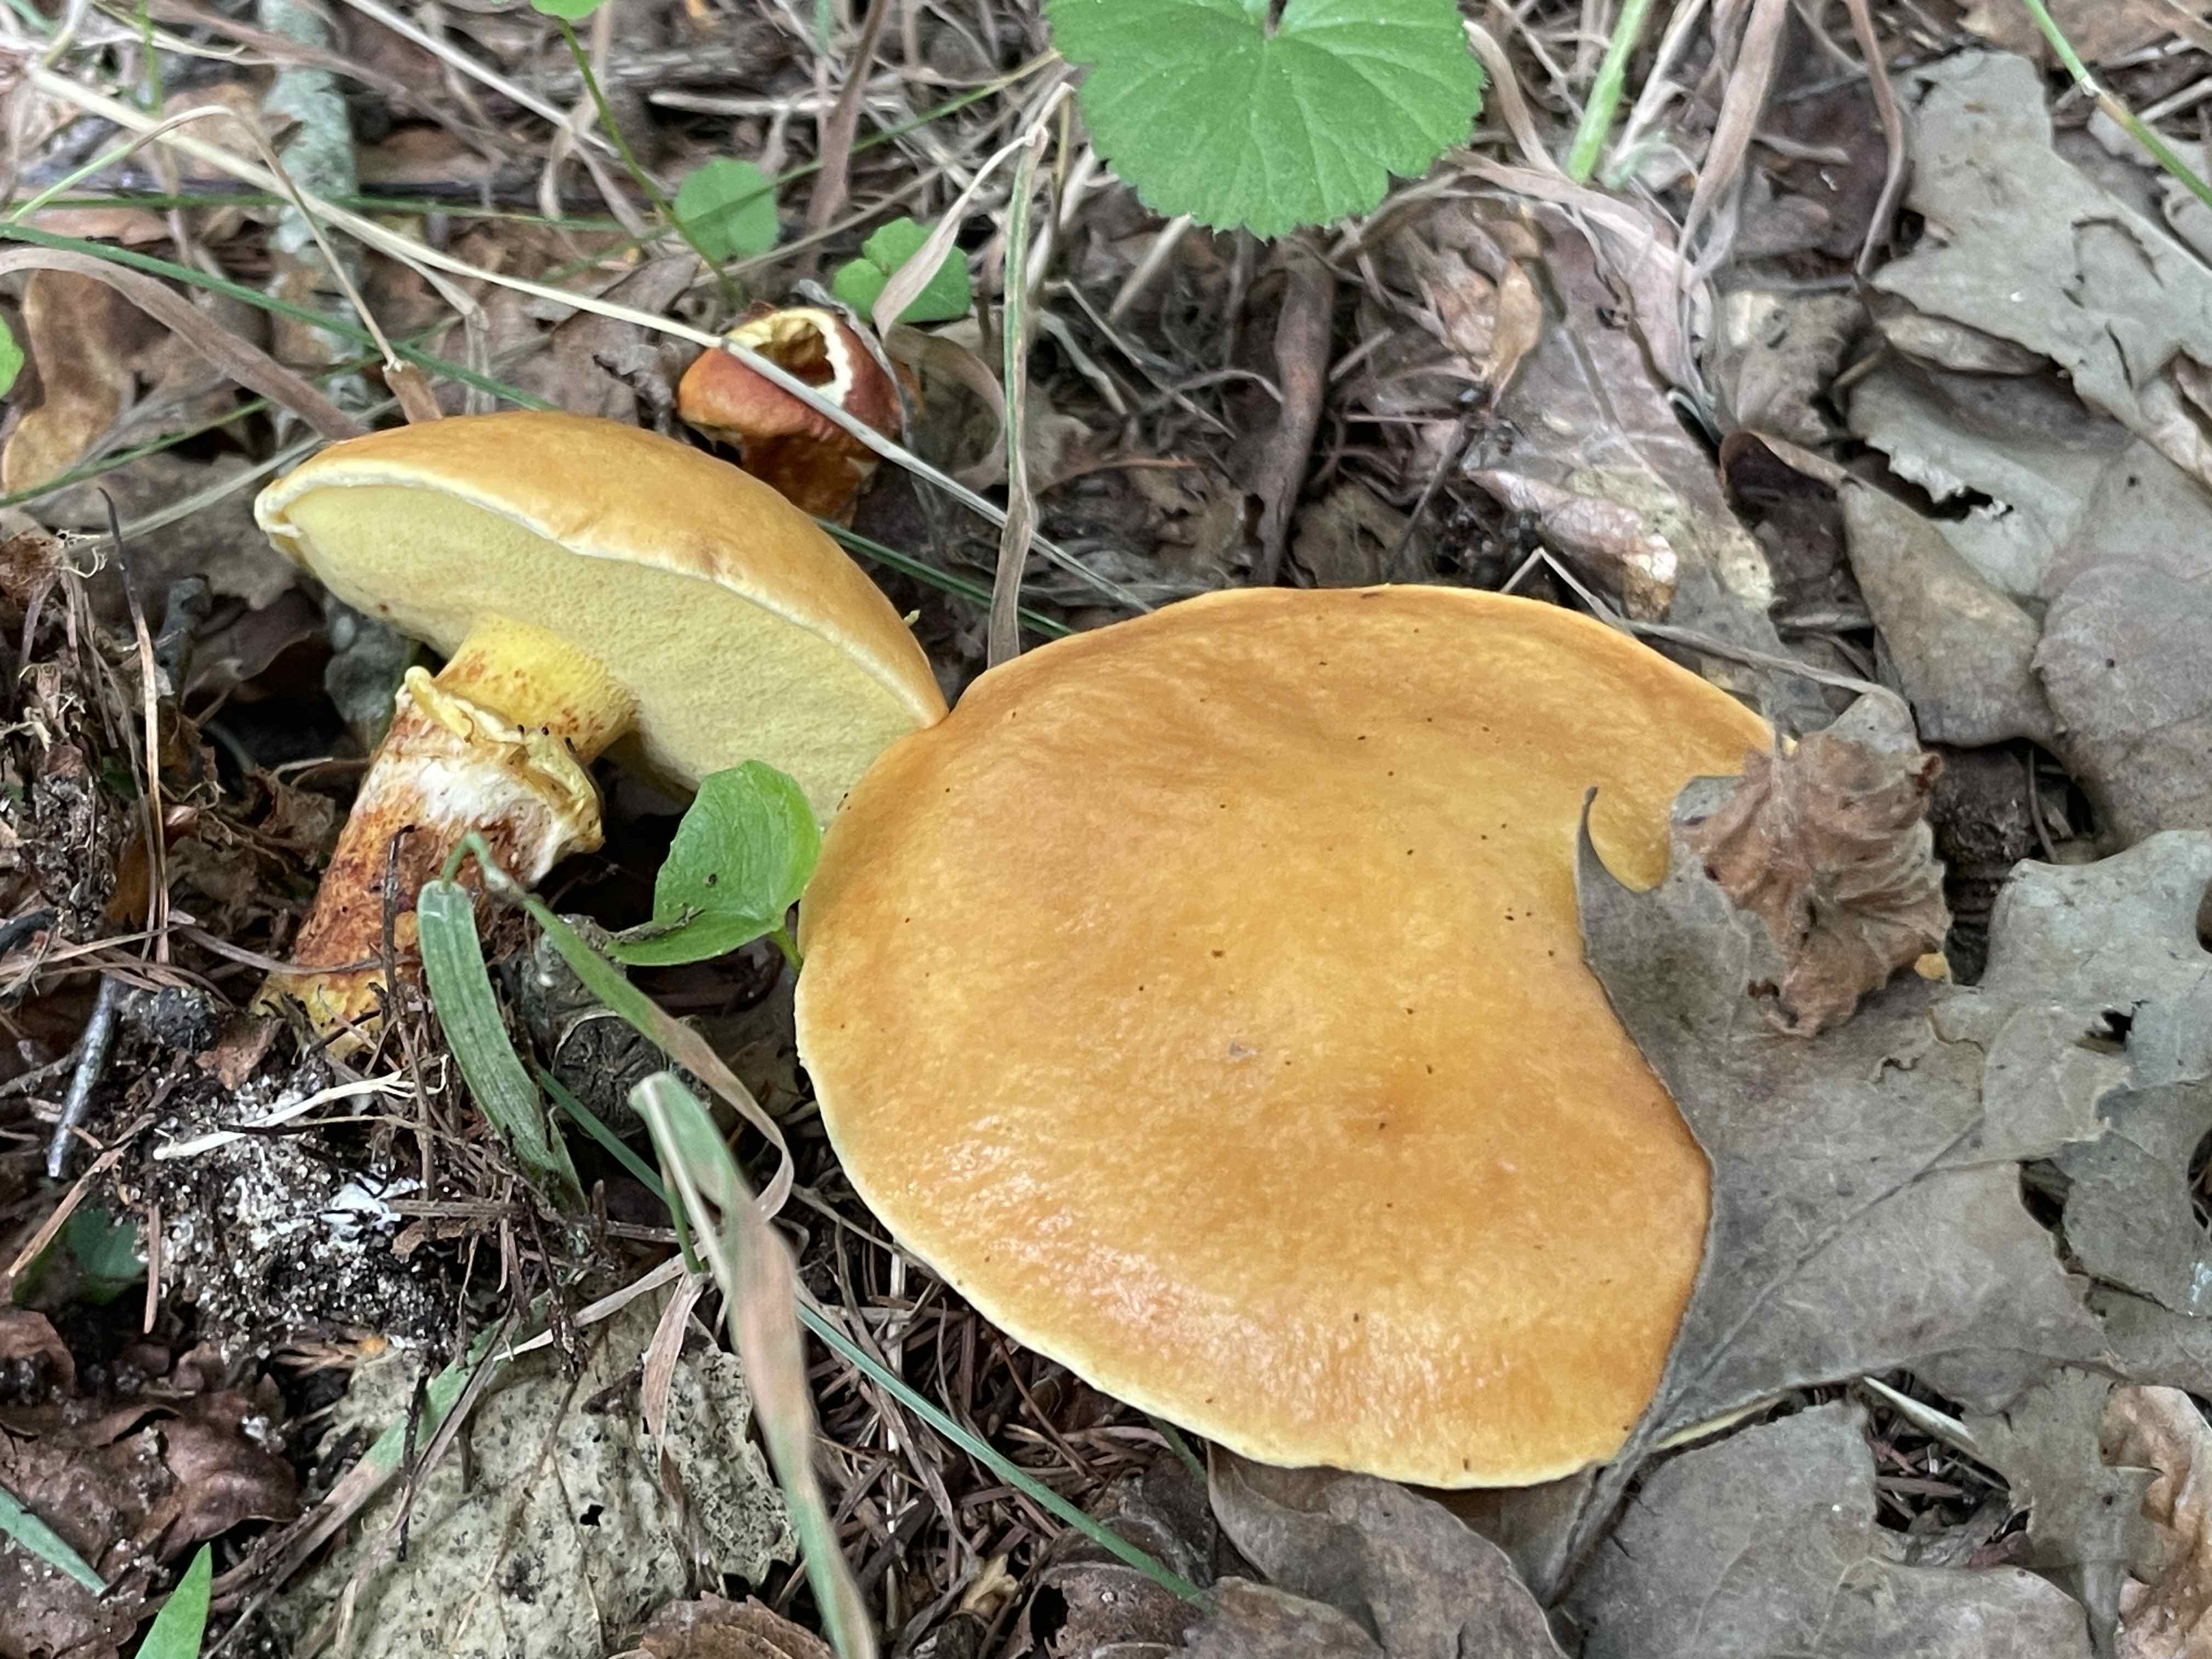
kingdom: Fungi
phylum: Basidiomycota
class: Agaricomycetes
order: Boletales
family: Suillaceae
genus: Suillus
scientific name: Suillus grevillei
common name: lærke-slimrørhat
